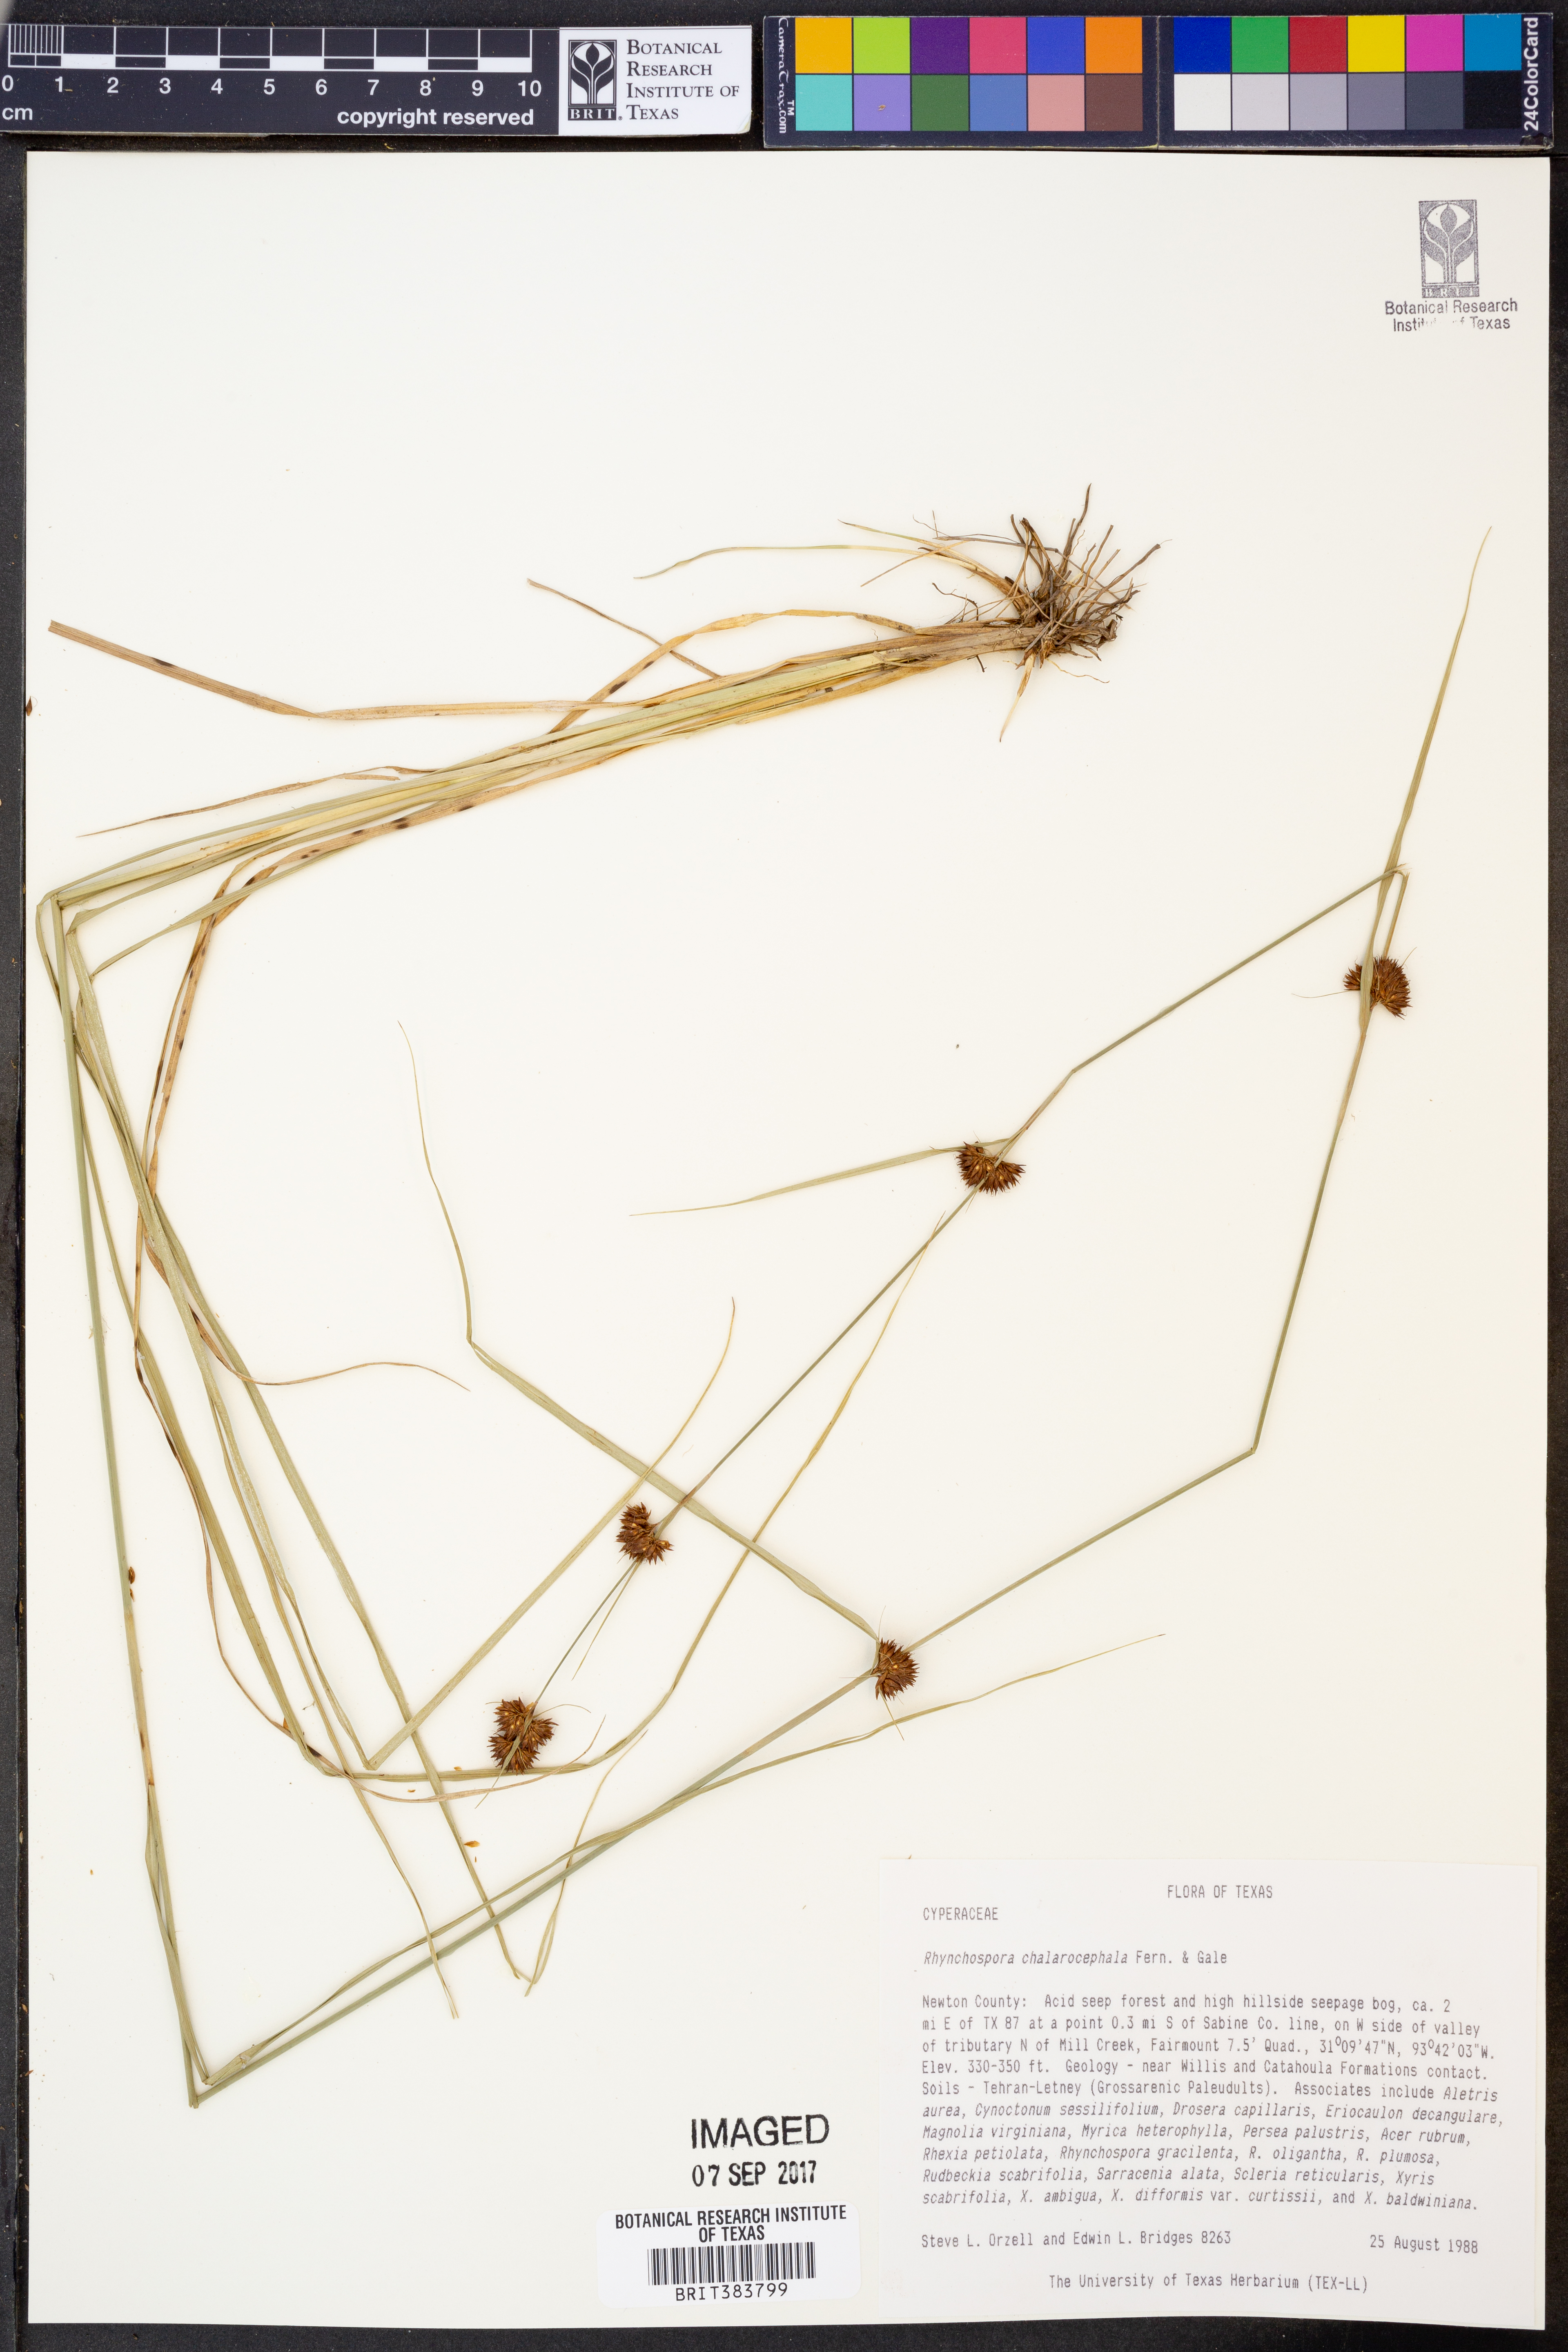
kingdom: Plantae
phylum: Tracheophyta
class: Liliopsida
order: Poales
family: Cyperaceae
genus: Rhynchospora
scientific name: Rhynchospora chalarocephala
